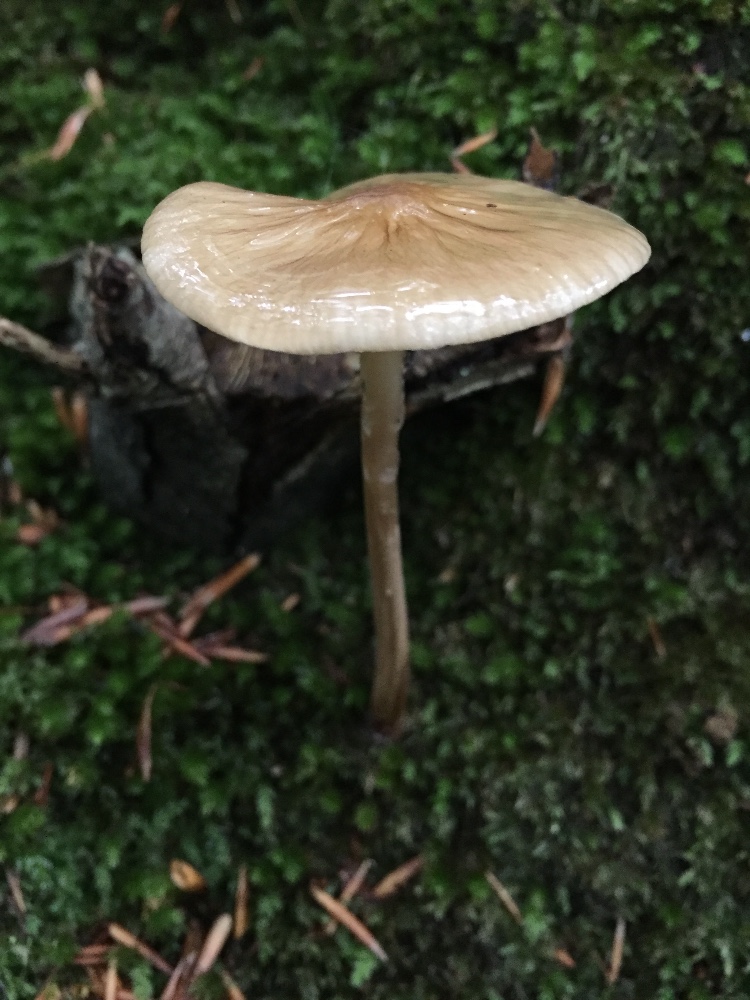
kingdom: Fungi
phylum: Basidiomycota
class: Agaricomycetes
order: Agaricales
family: Physalacriaceae
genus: Hymenopellis
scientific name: Hymenopellis radicata
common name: almindelig pælerodshat
